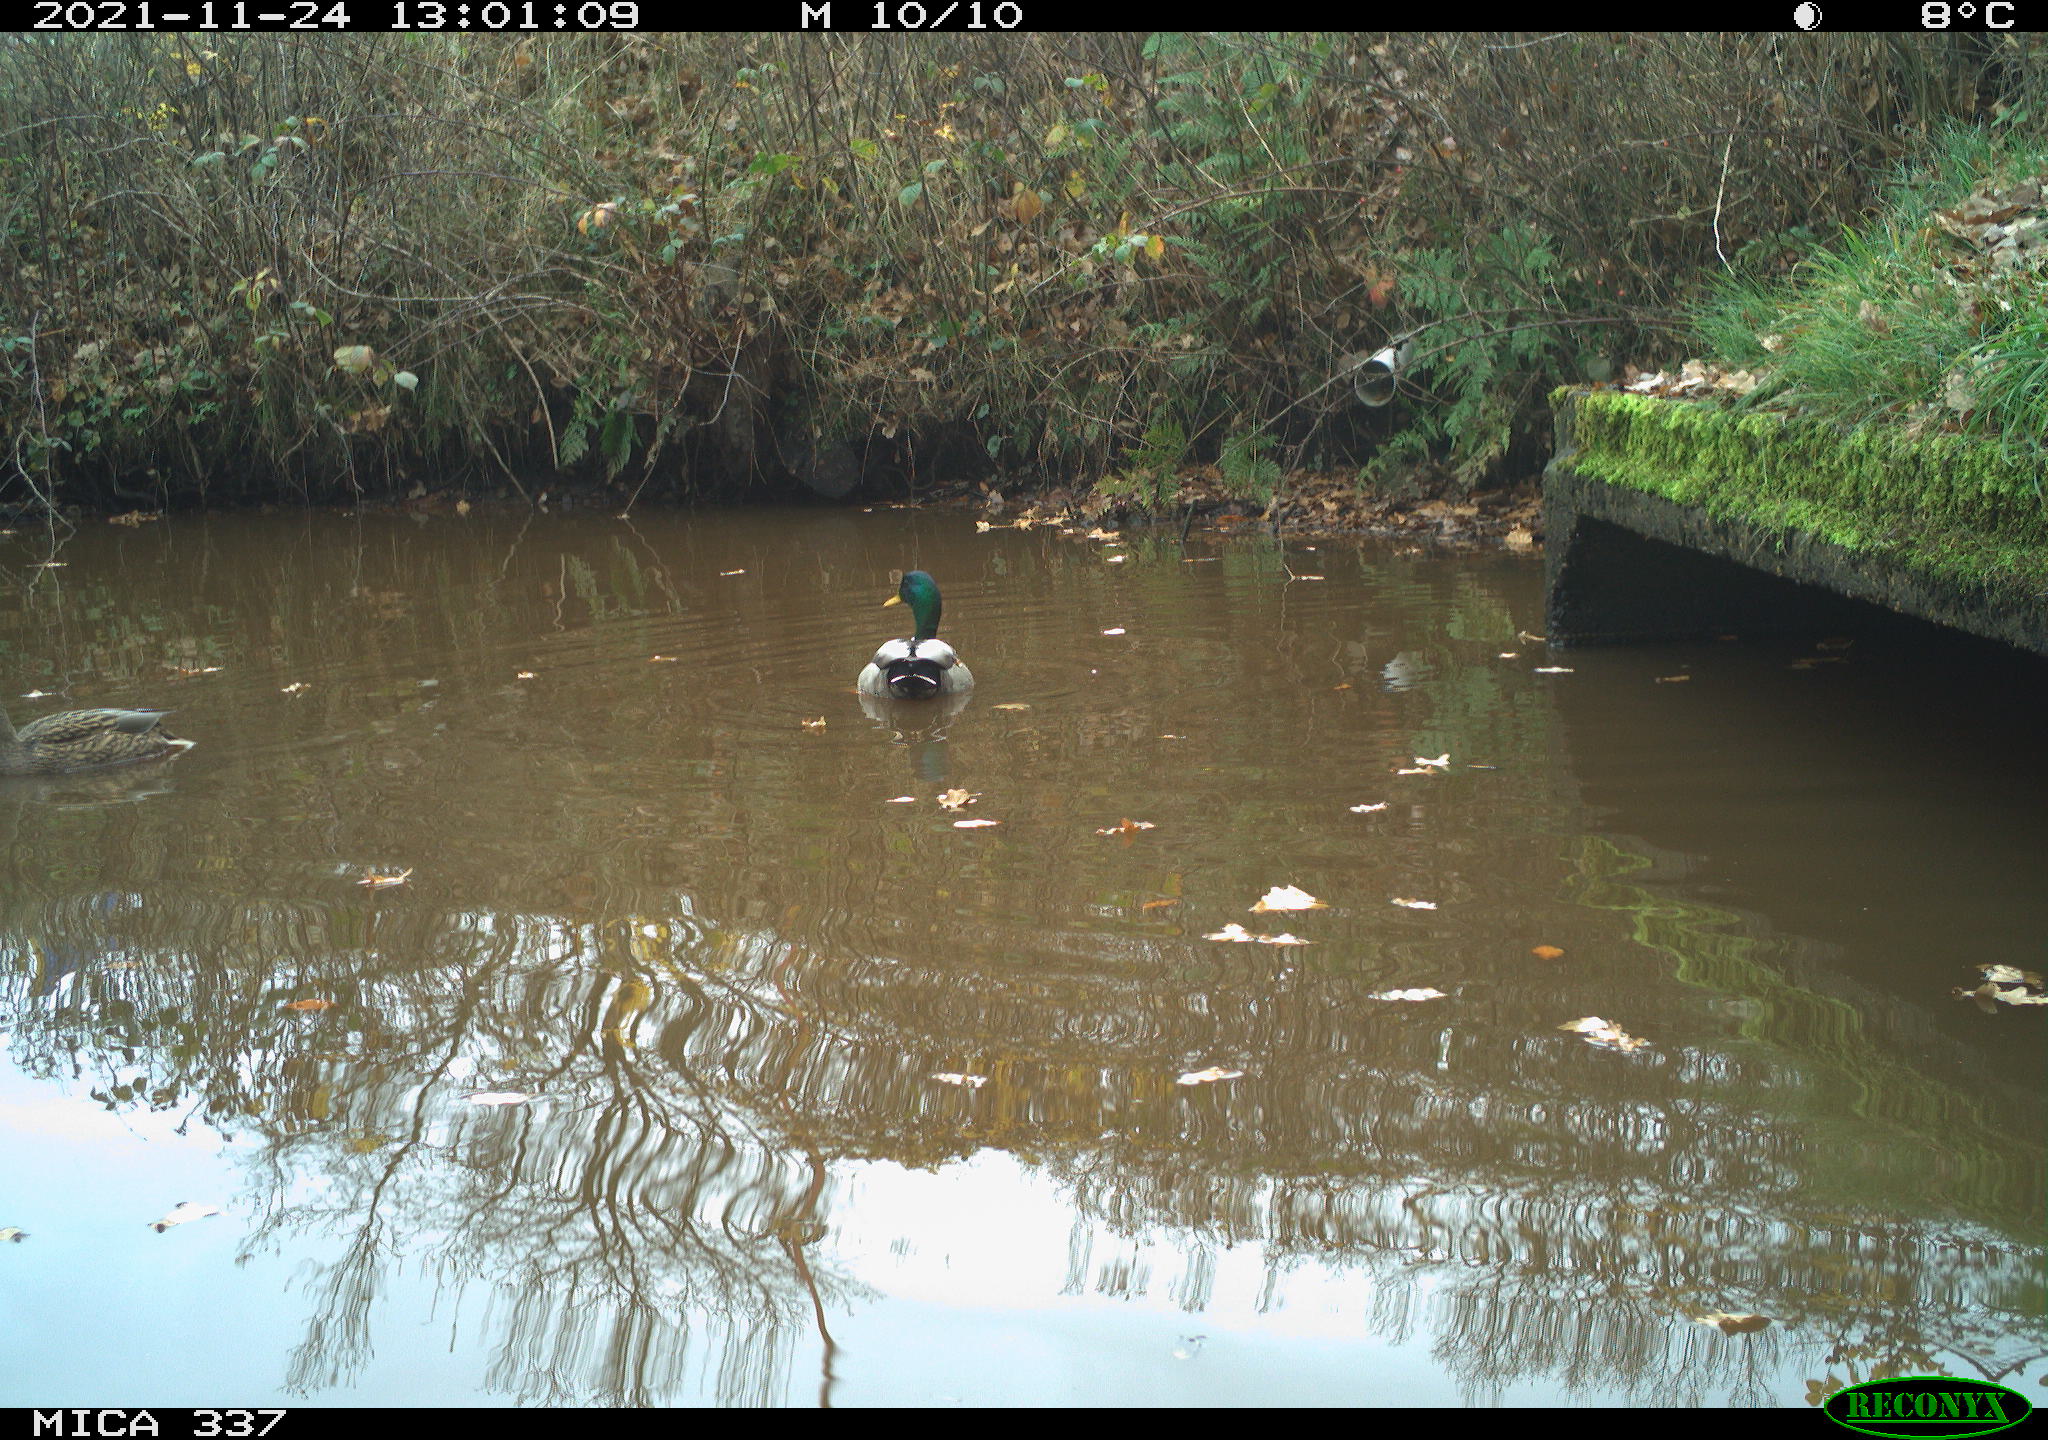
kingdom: Animalia
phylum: Chordata
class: Aves
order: Anseriformes
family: Anatidae
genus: Anas
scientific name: Anas platyrhynchos
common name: Mallard
